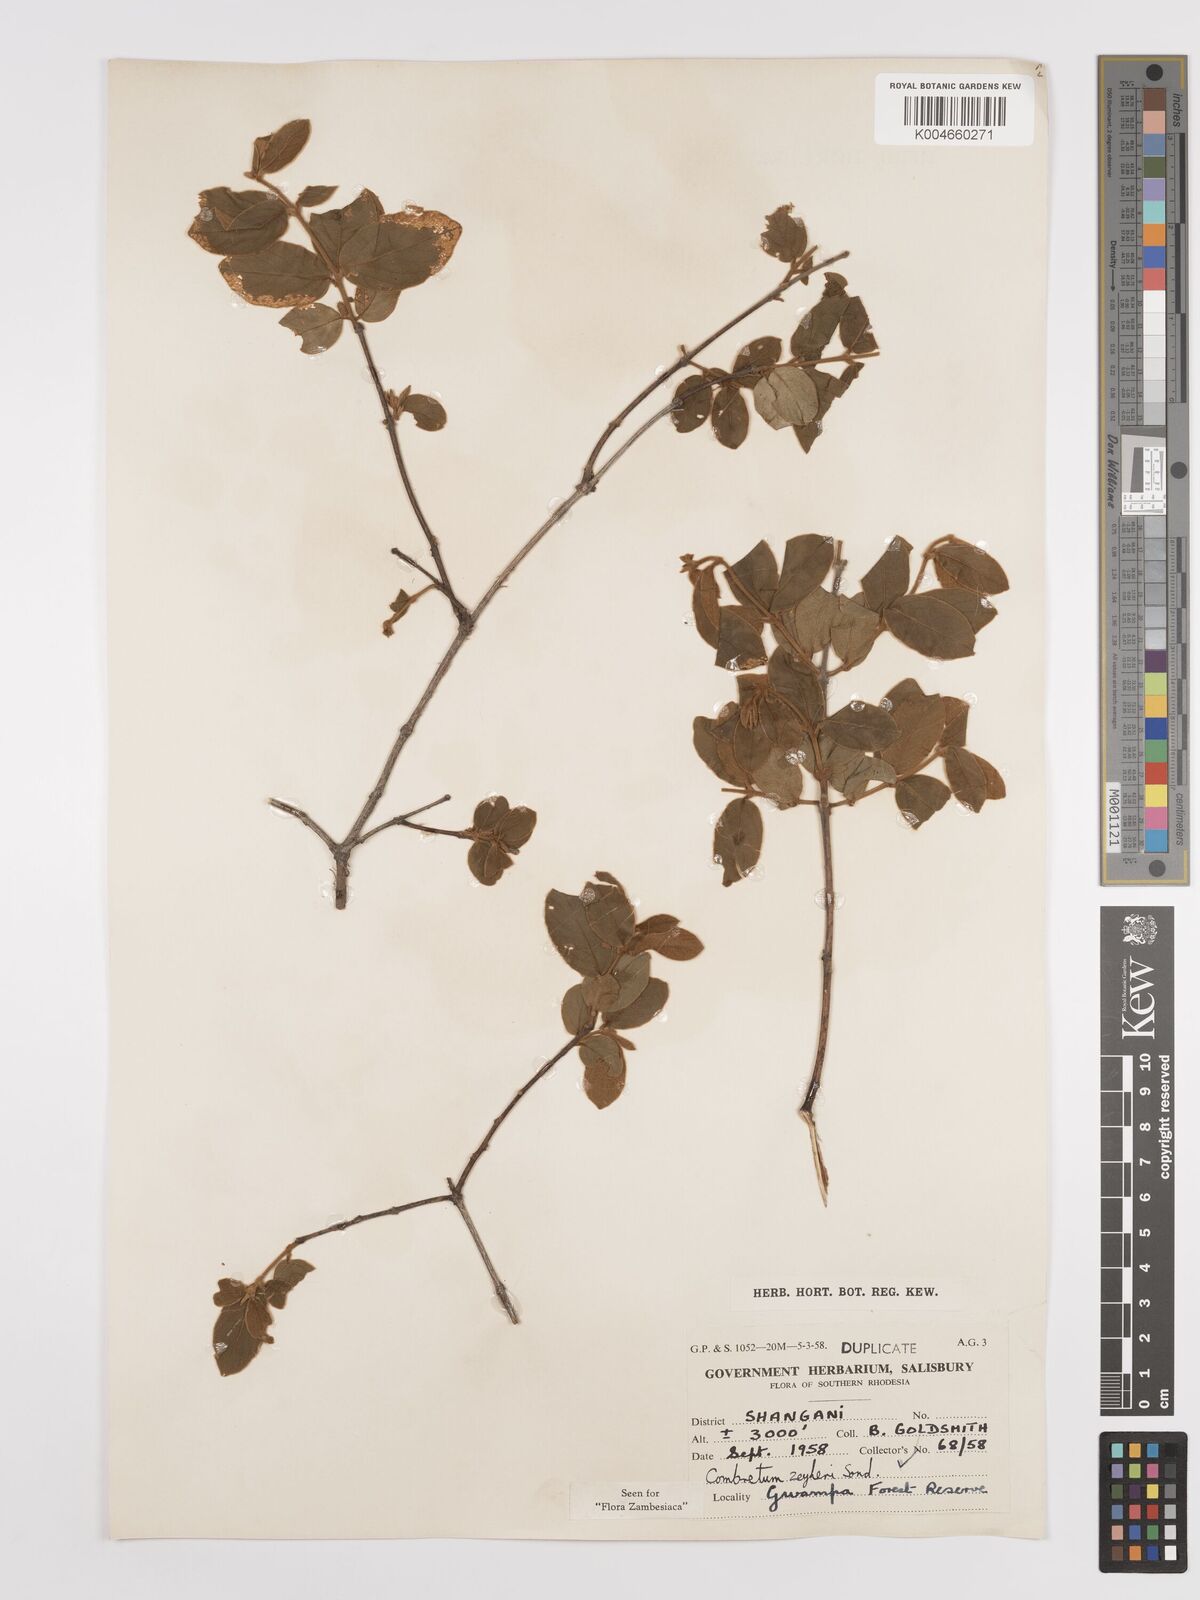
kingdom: Plantae
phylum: Tracheophyta
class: Magnoliopsida
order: Myrtales
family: Combretaceae
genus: Combretum
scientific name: Combretum zeyheri
